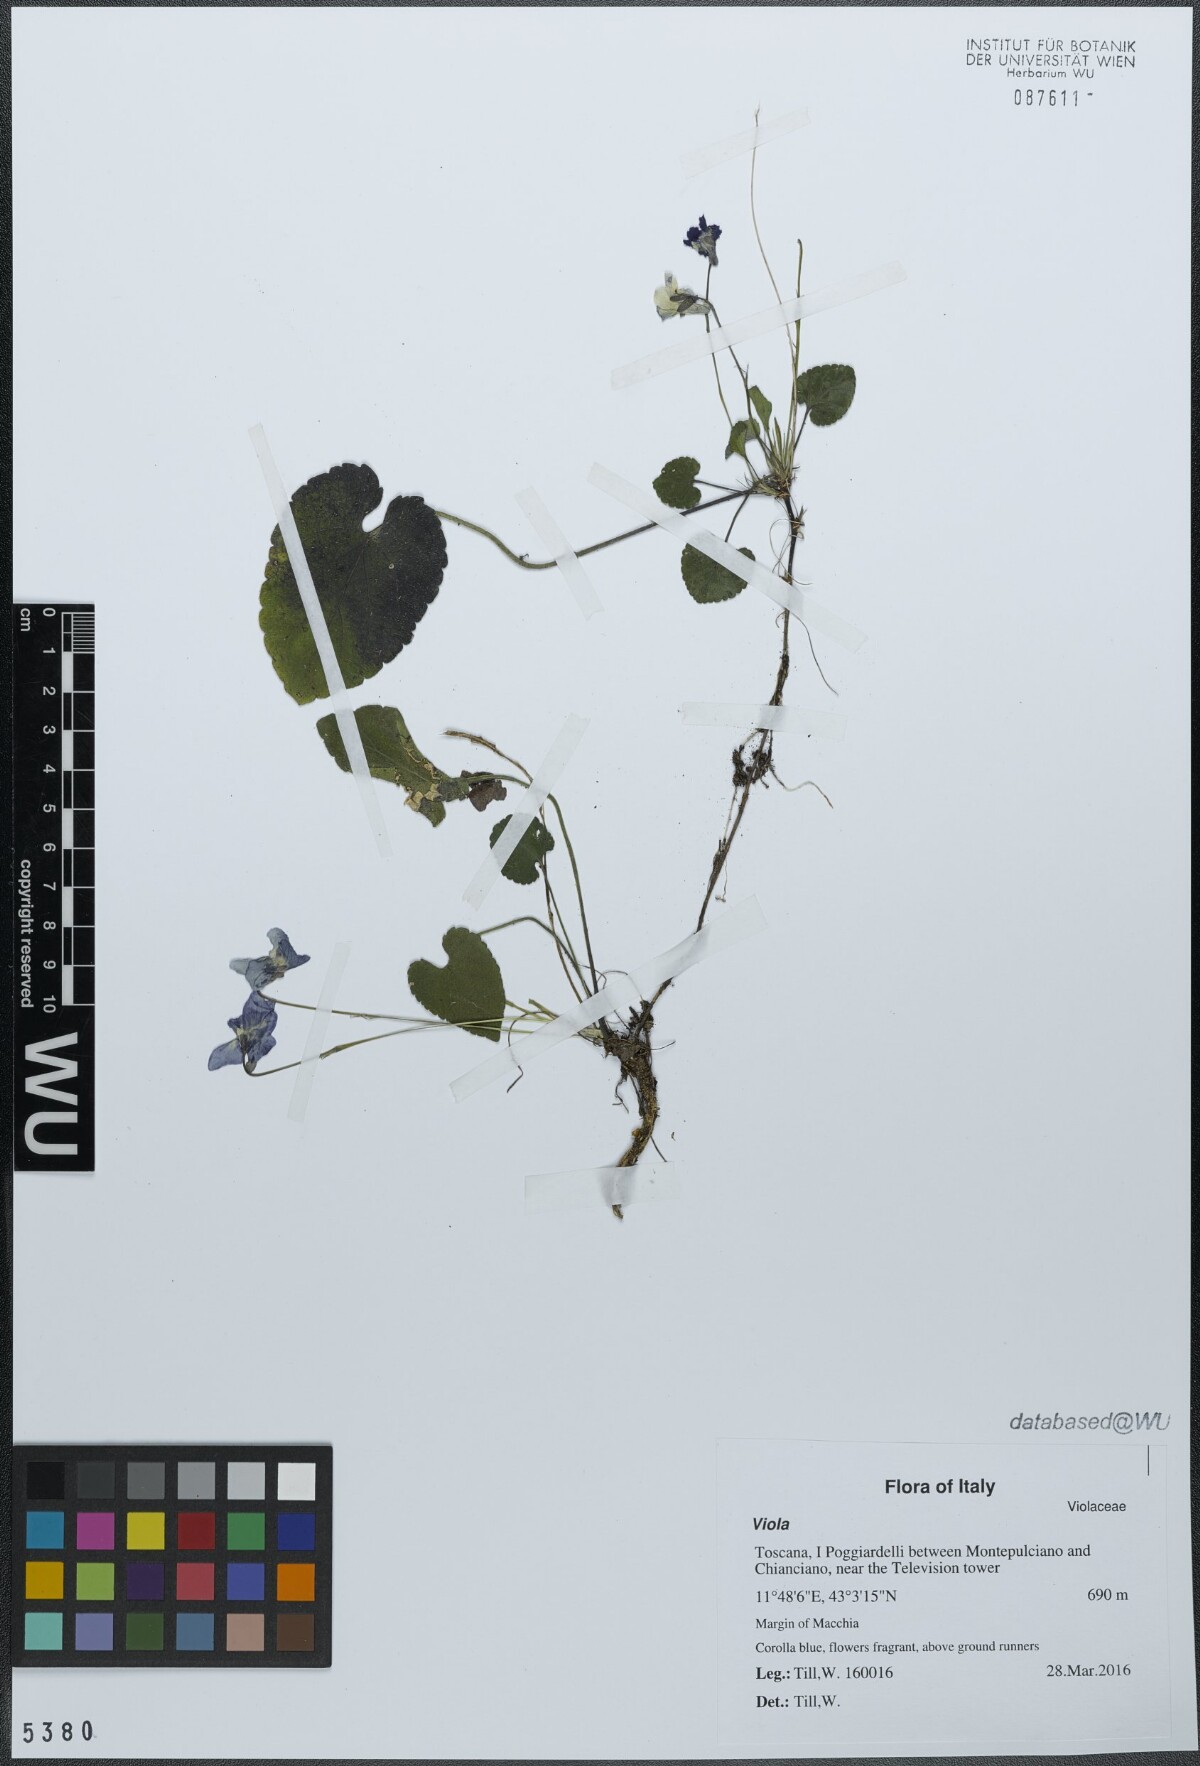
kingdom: Plantae
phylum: Tracheophyta
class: Magnoliopsida
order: Malpighiales
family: Violaceae
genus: Viola
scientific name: Viola alba
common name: White violet
